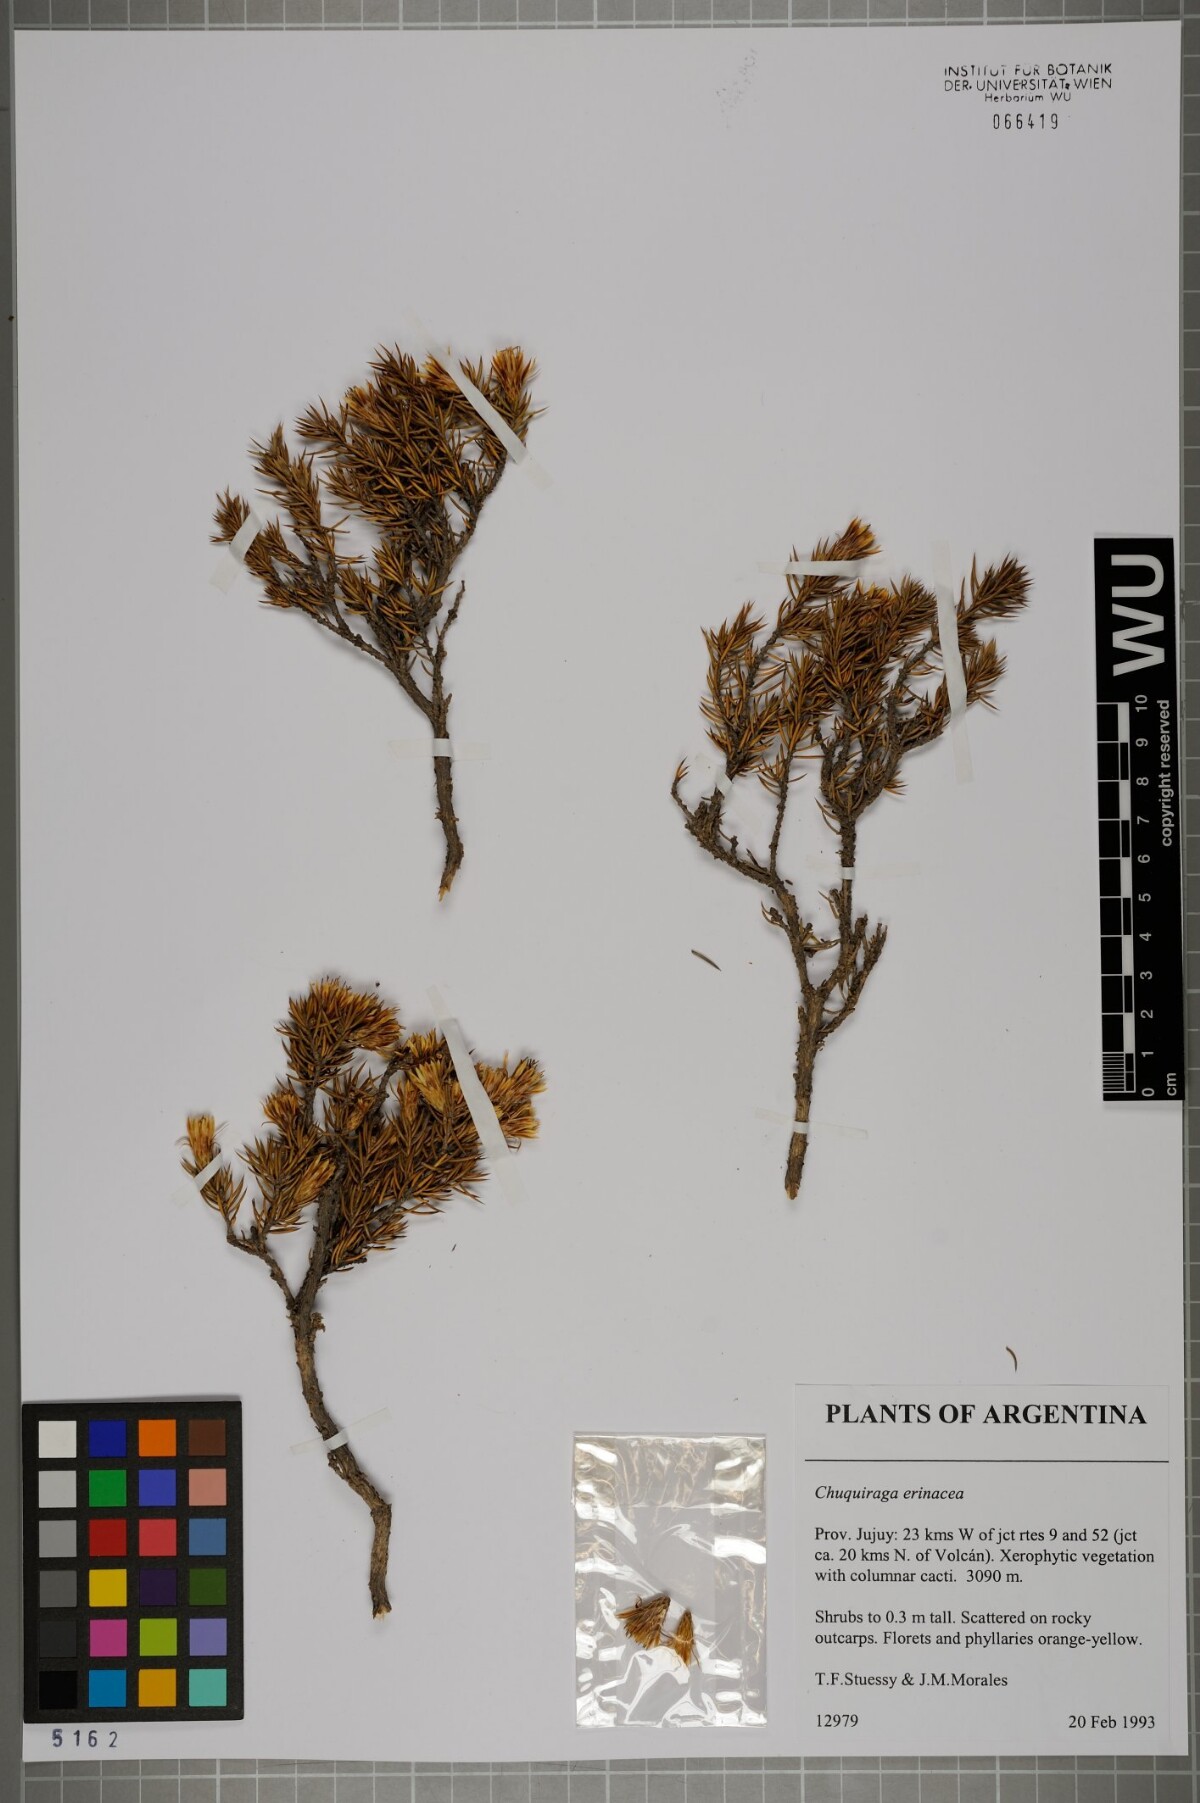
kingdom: Plantae
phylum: Tracheophyta
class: Magnoliopsida
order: Asterales
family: Asteraceae
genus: Chuquiraga
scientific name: Chuquiraga erinacea
